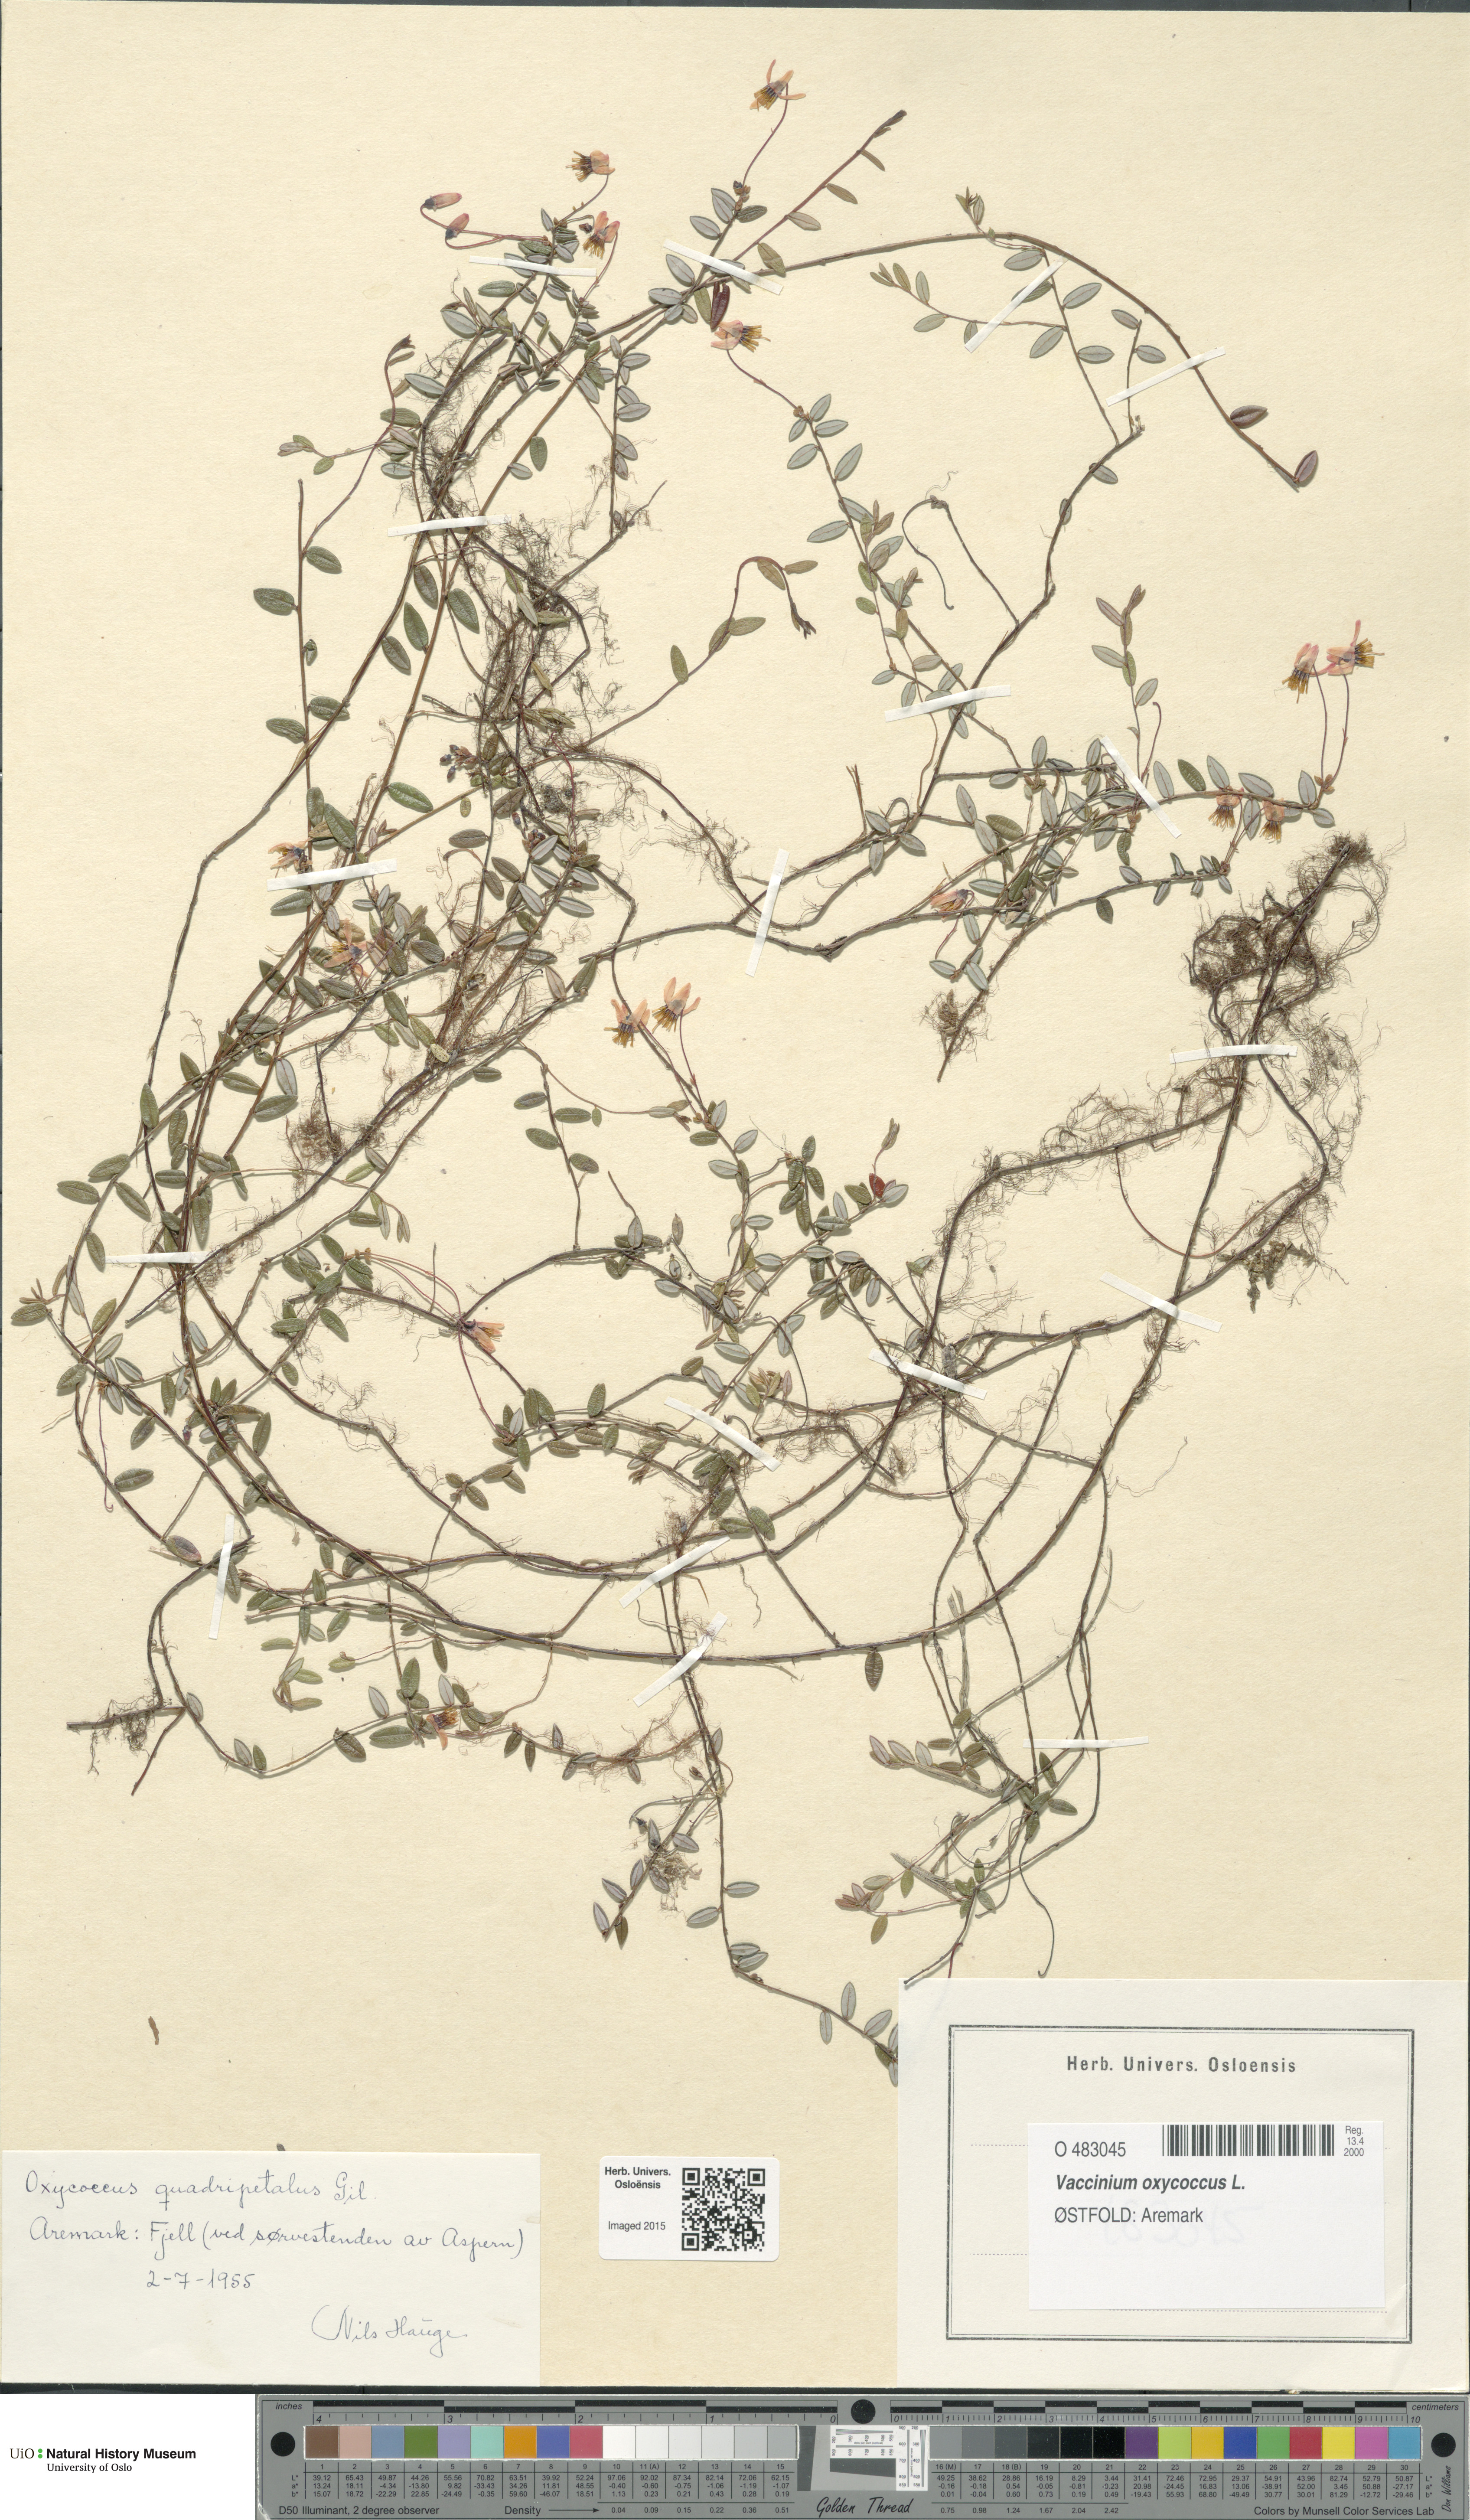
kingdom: Plantae
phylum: Tracheophyta
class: Magnoliopsida
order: Ericales
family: Ericaceae
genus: Vaccinium
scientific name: Vaccinium oxycoccos
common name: Cranberry
